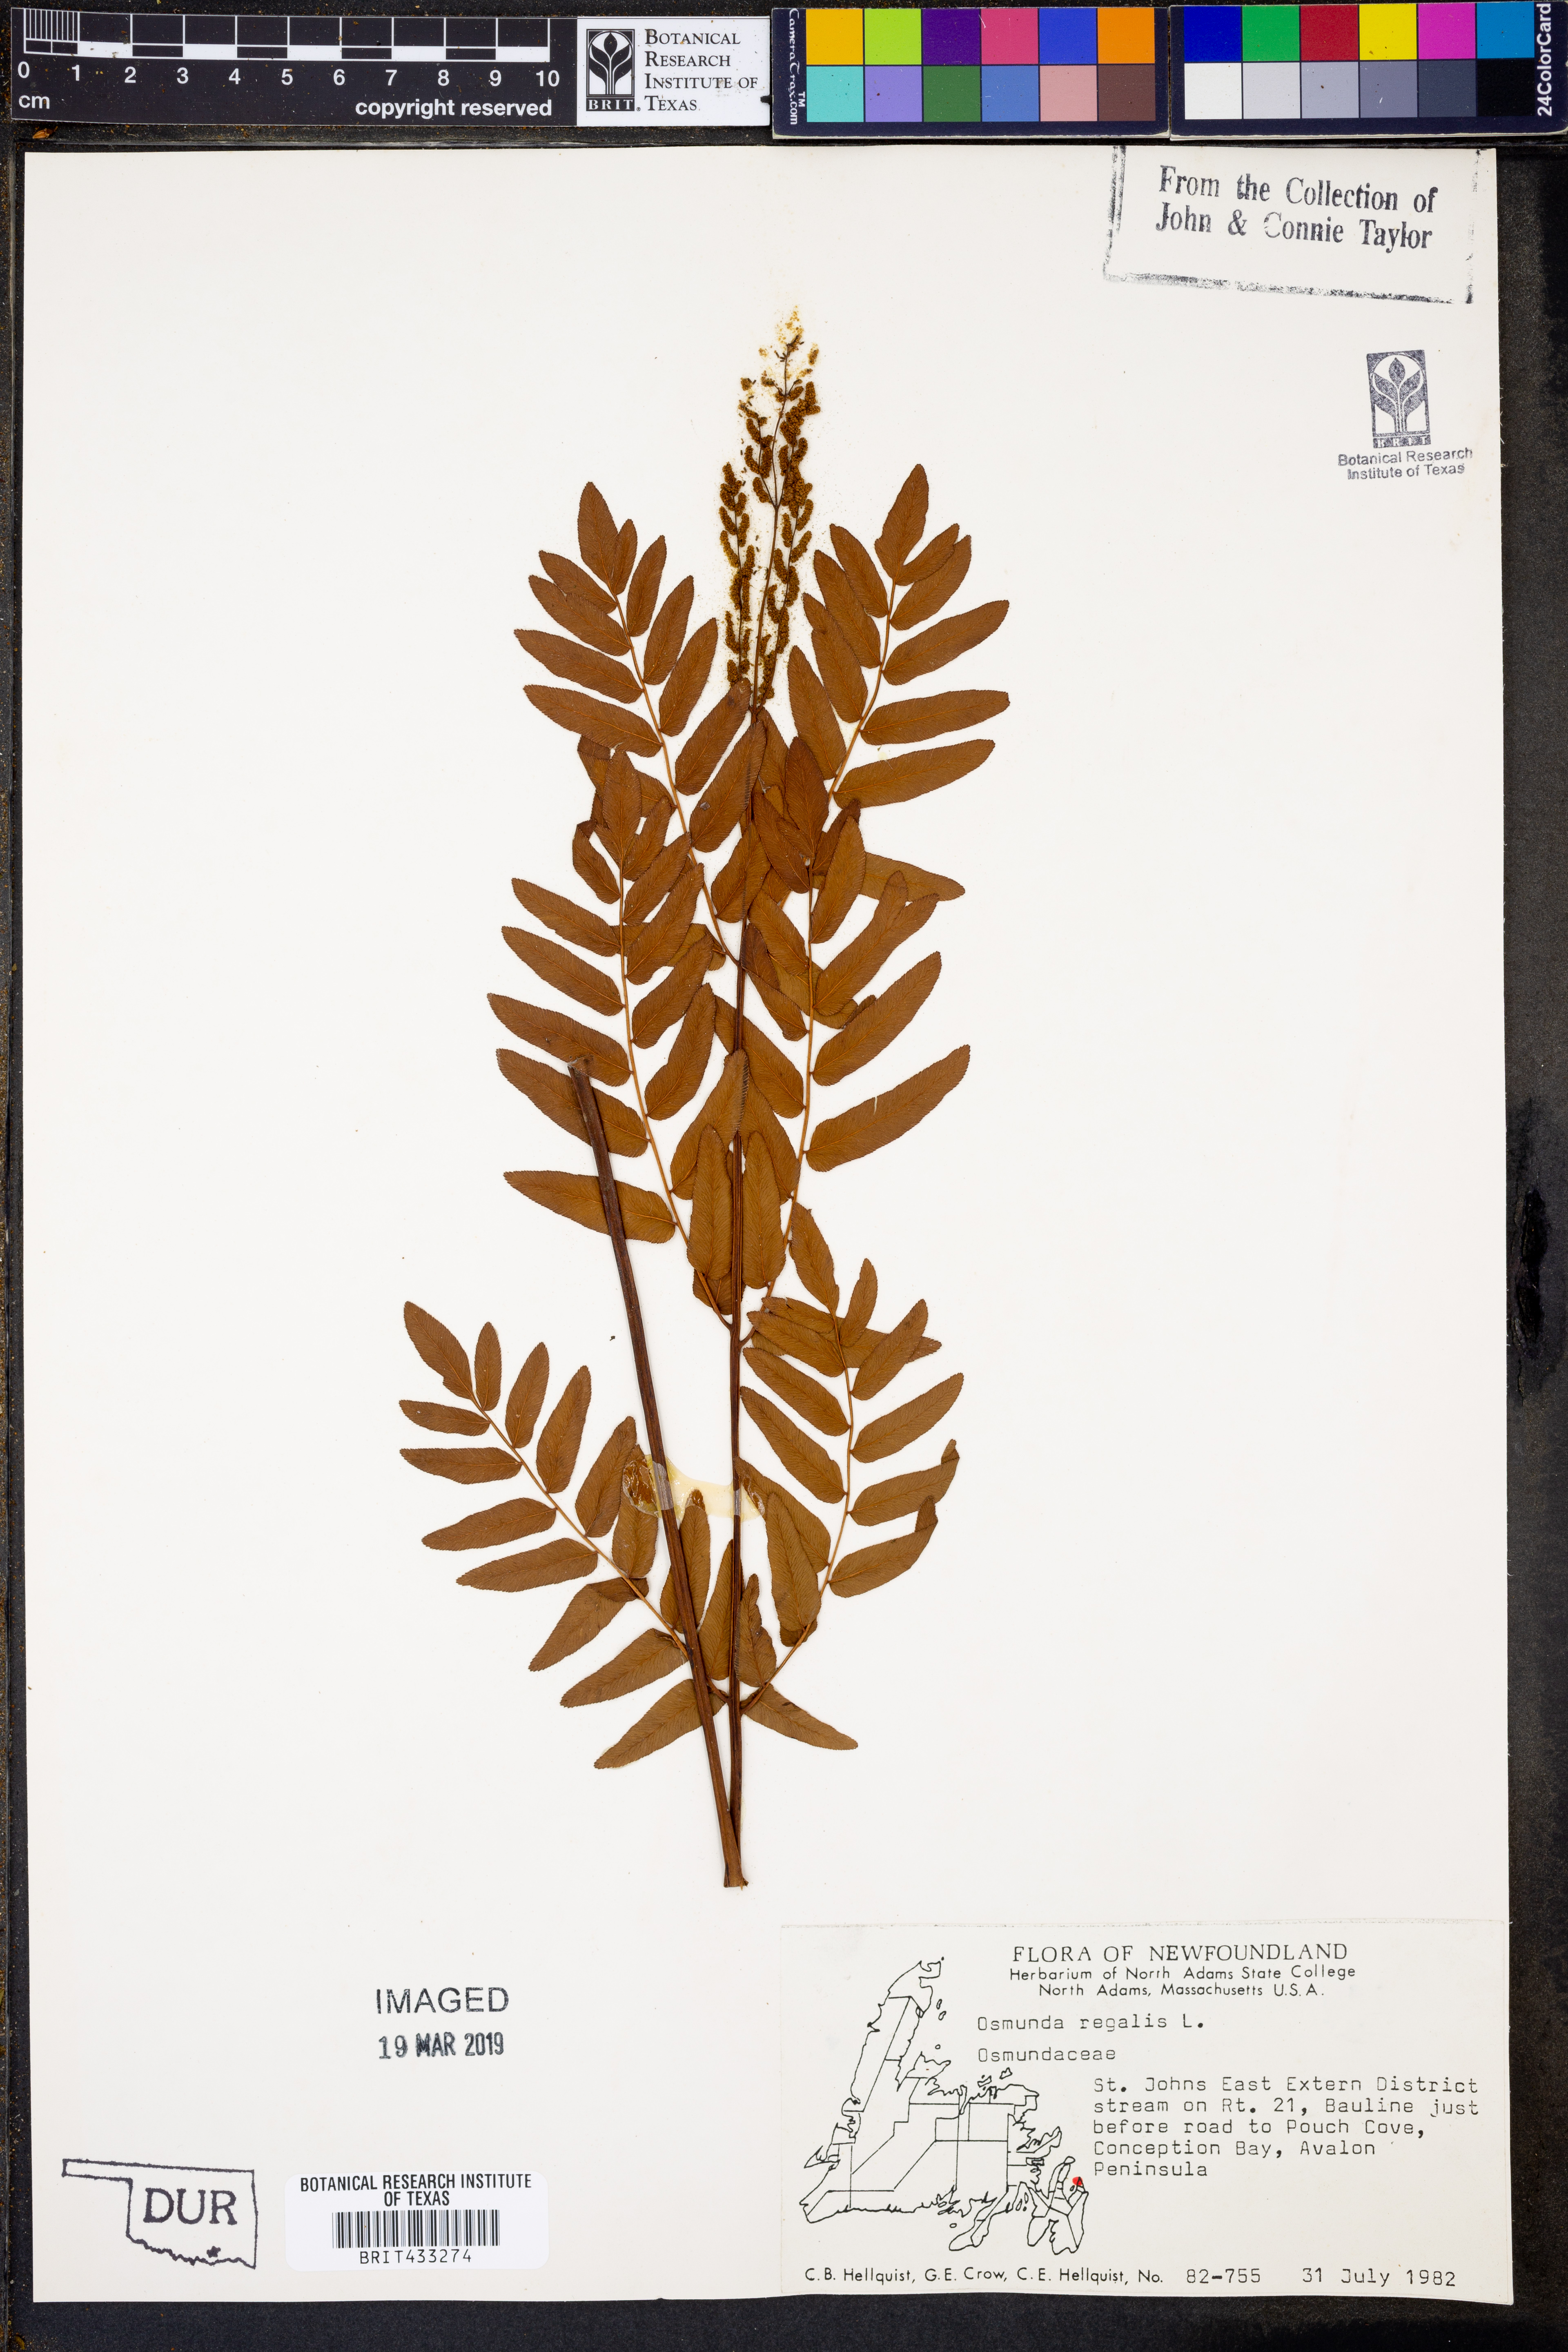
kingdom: Plantae
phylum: Tracheophyta
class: Polypodiopsida
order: Osmundales
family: Osmundaceae
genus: Osmunda
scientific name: Osmunda regalis
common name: Royal fern
